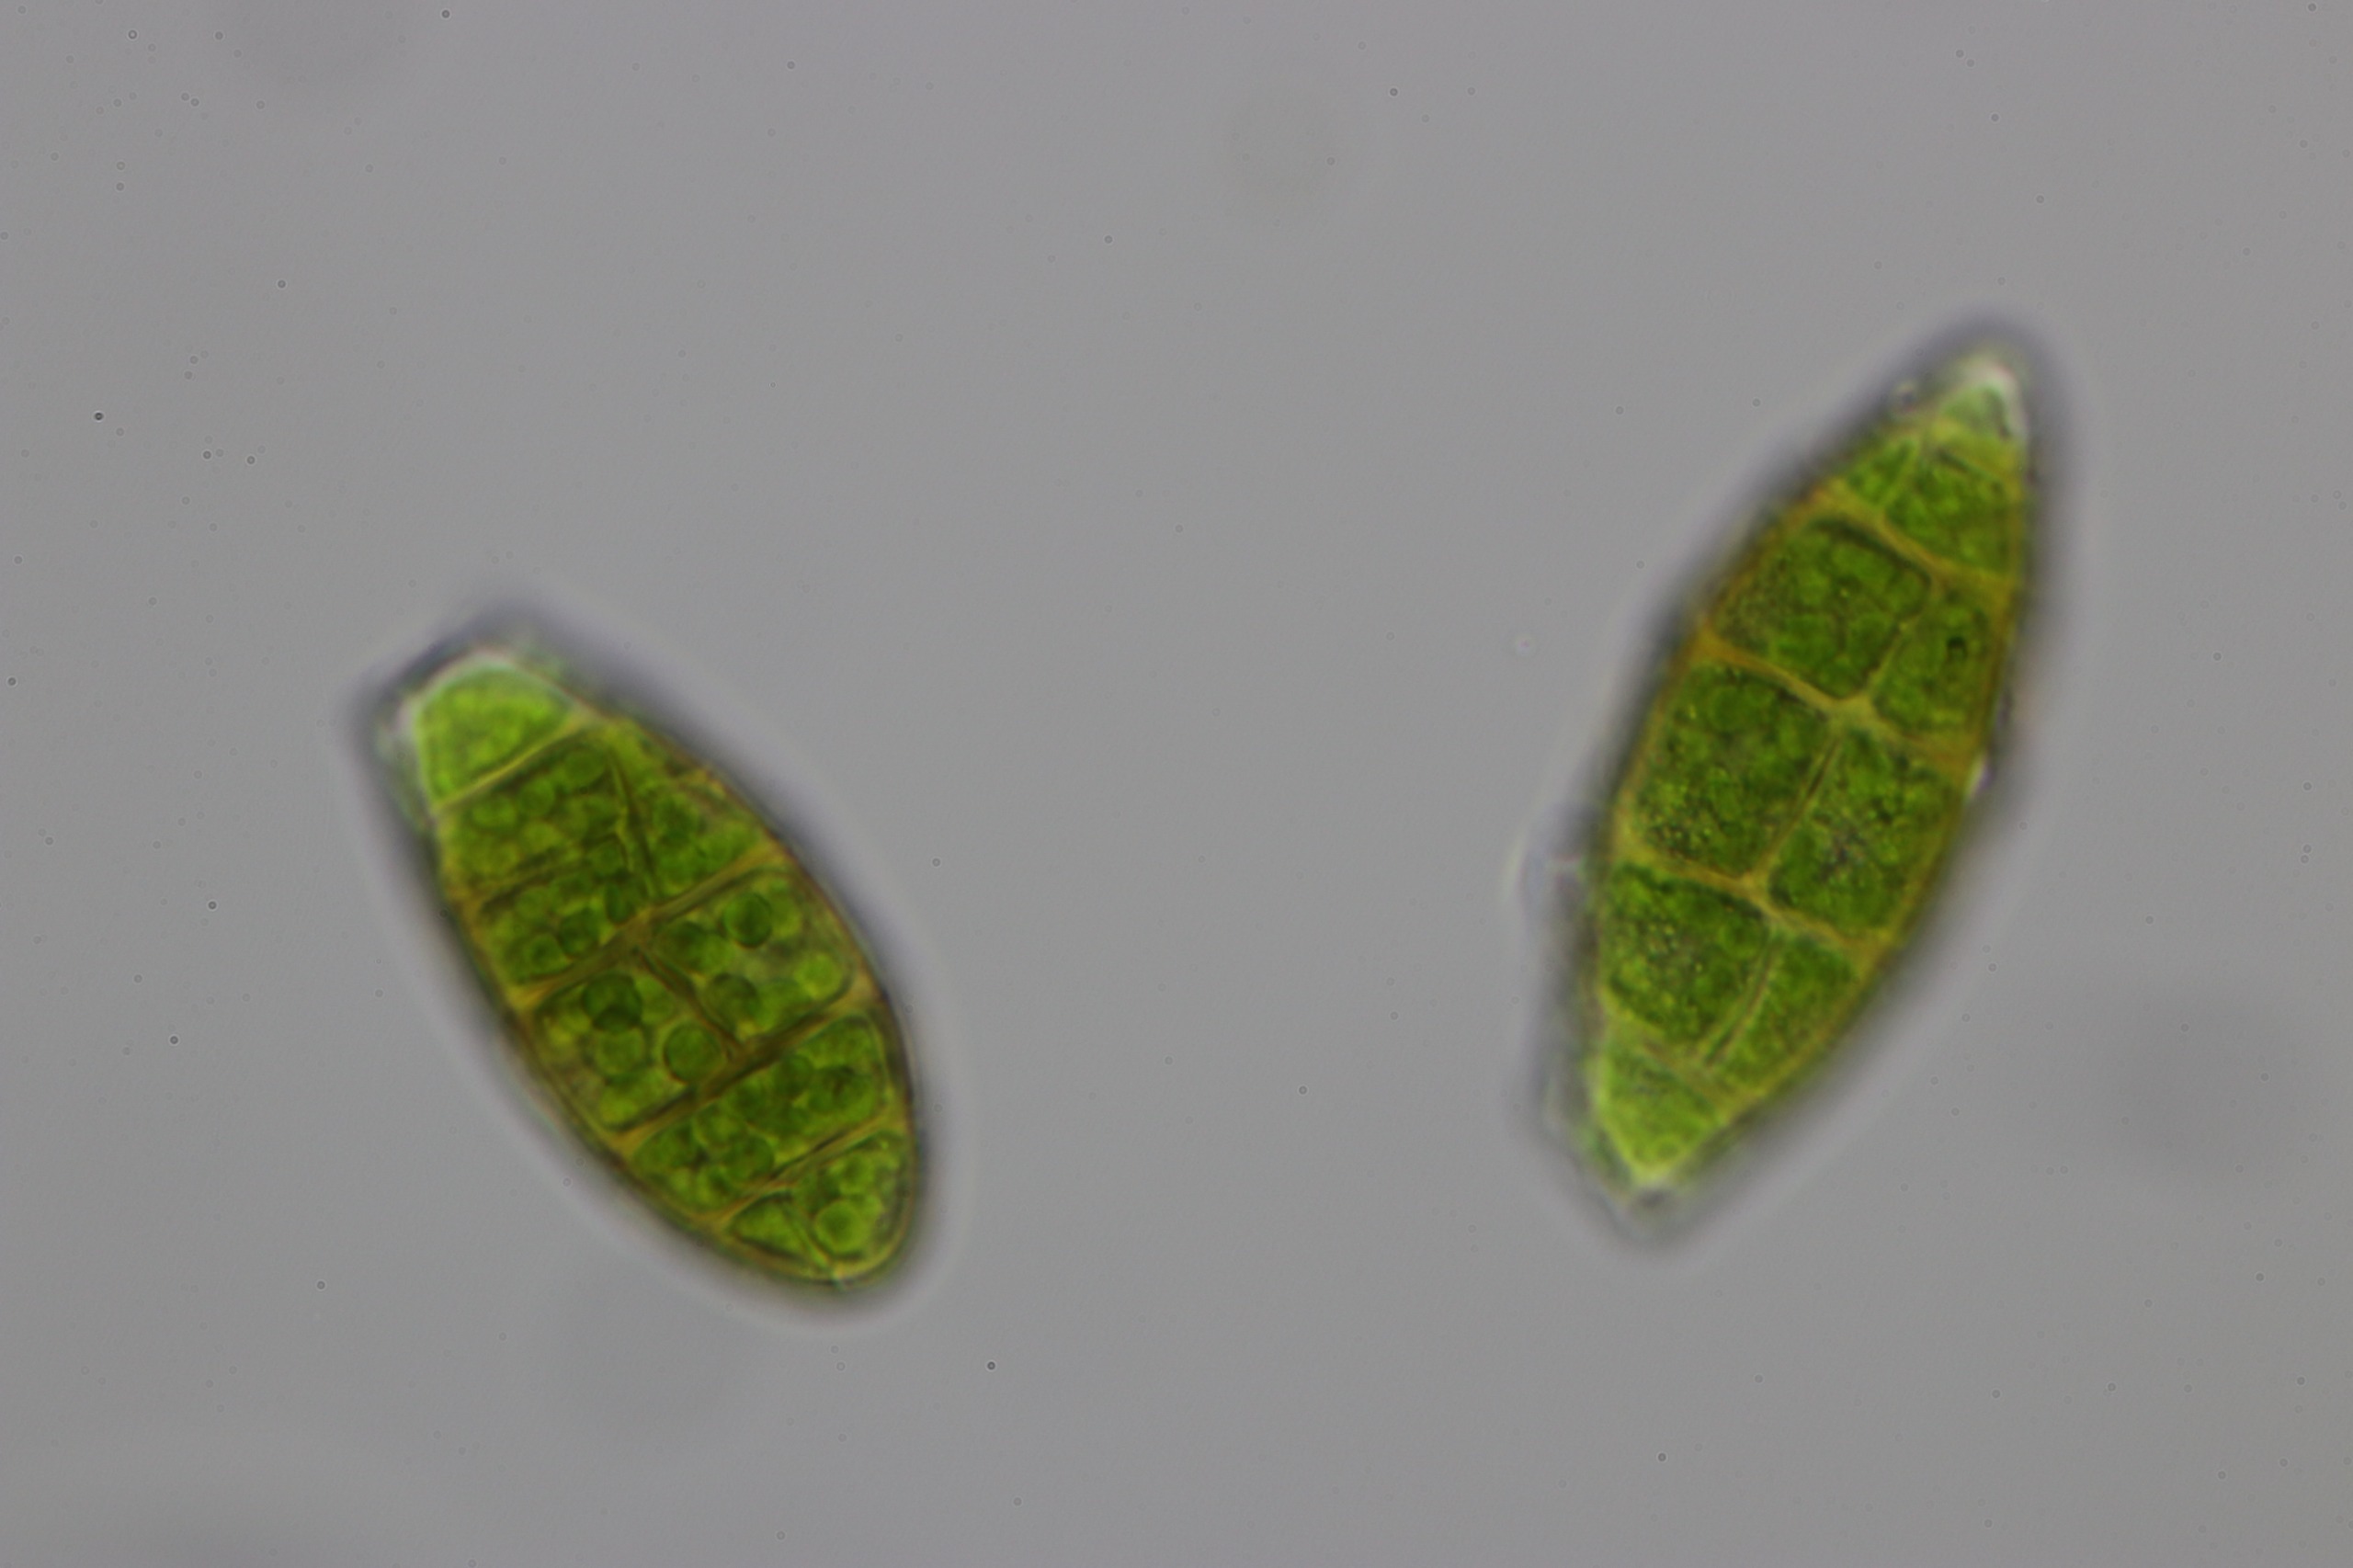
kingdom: Plantae
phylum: Bryophyta
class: Bryopsida
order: Orthotrichales
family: Orthotrichaceae
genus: Zygodon
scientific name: Zygodon viridissimus
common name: Grøn køllemos
